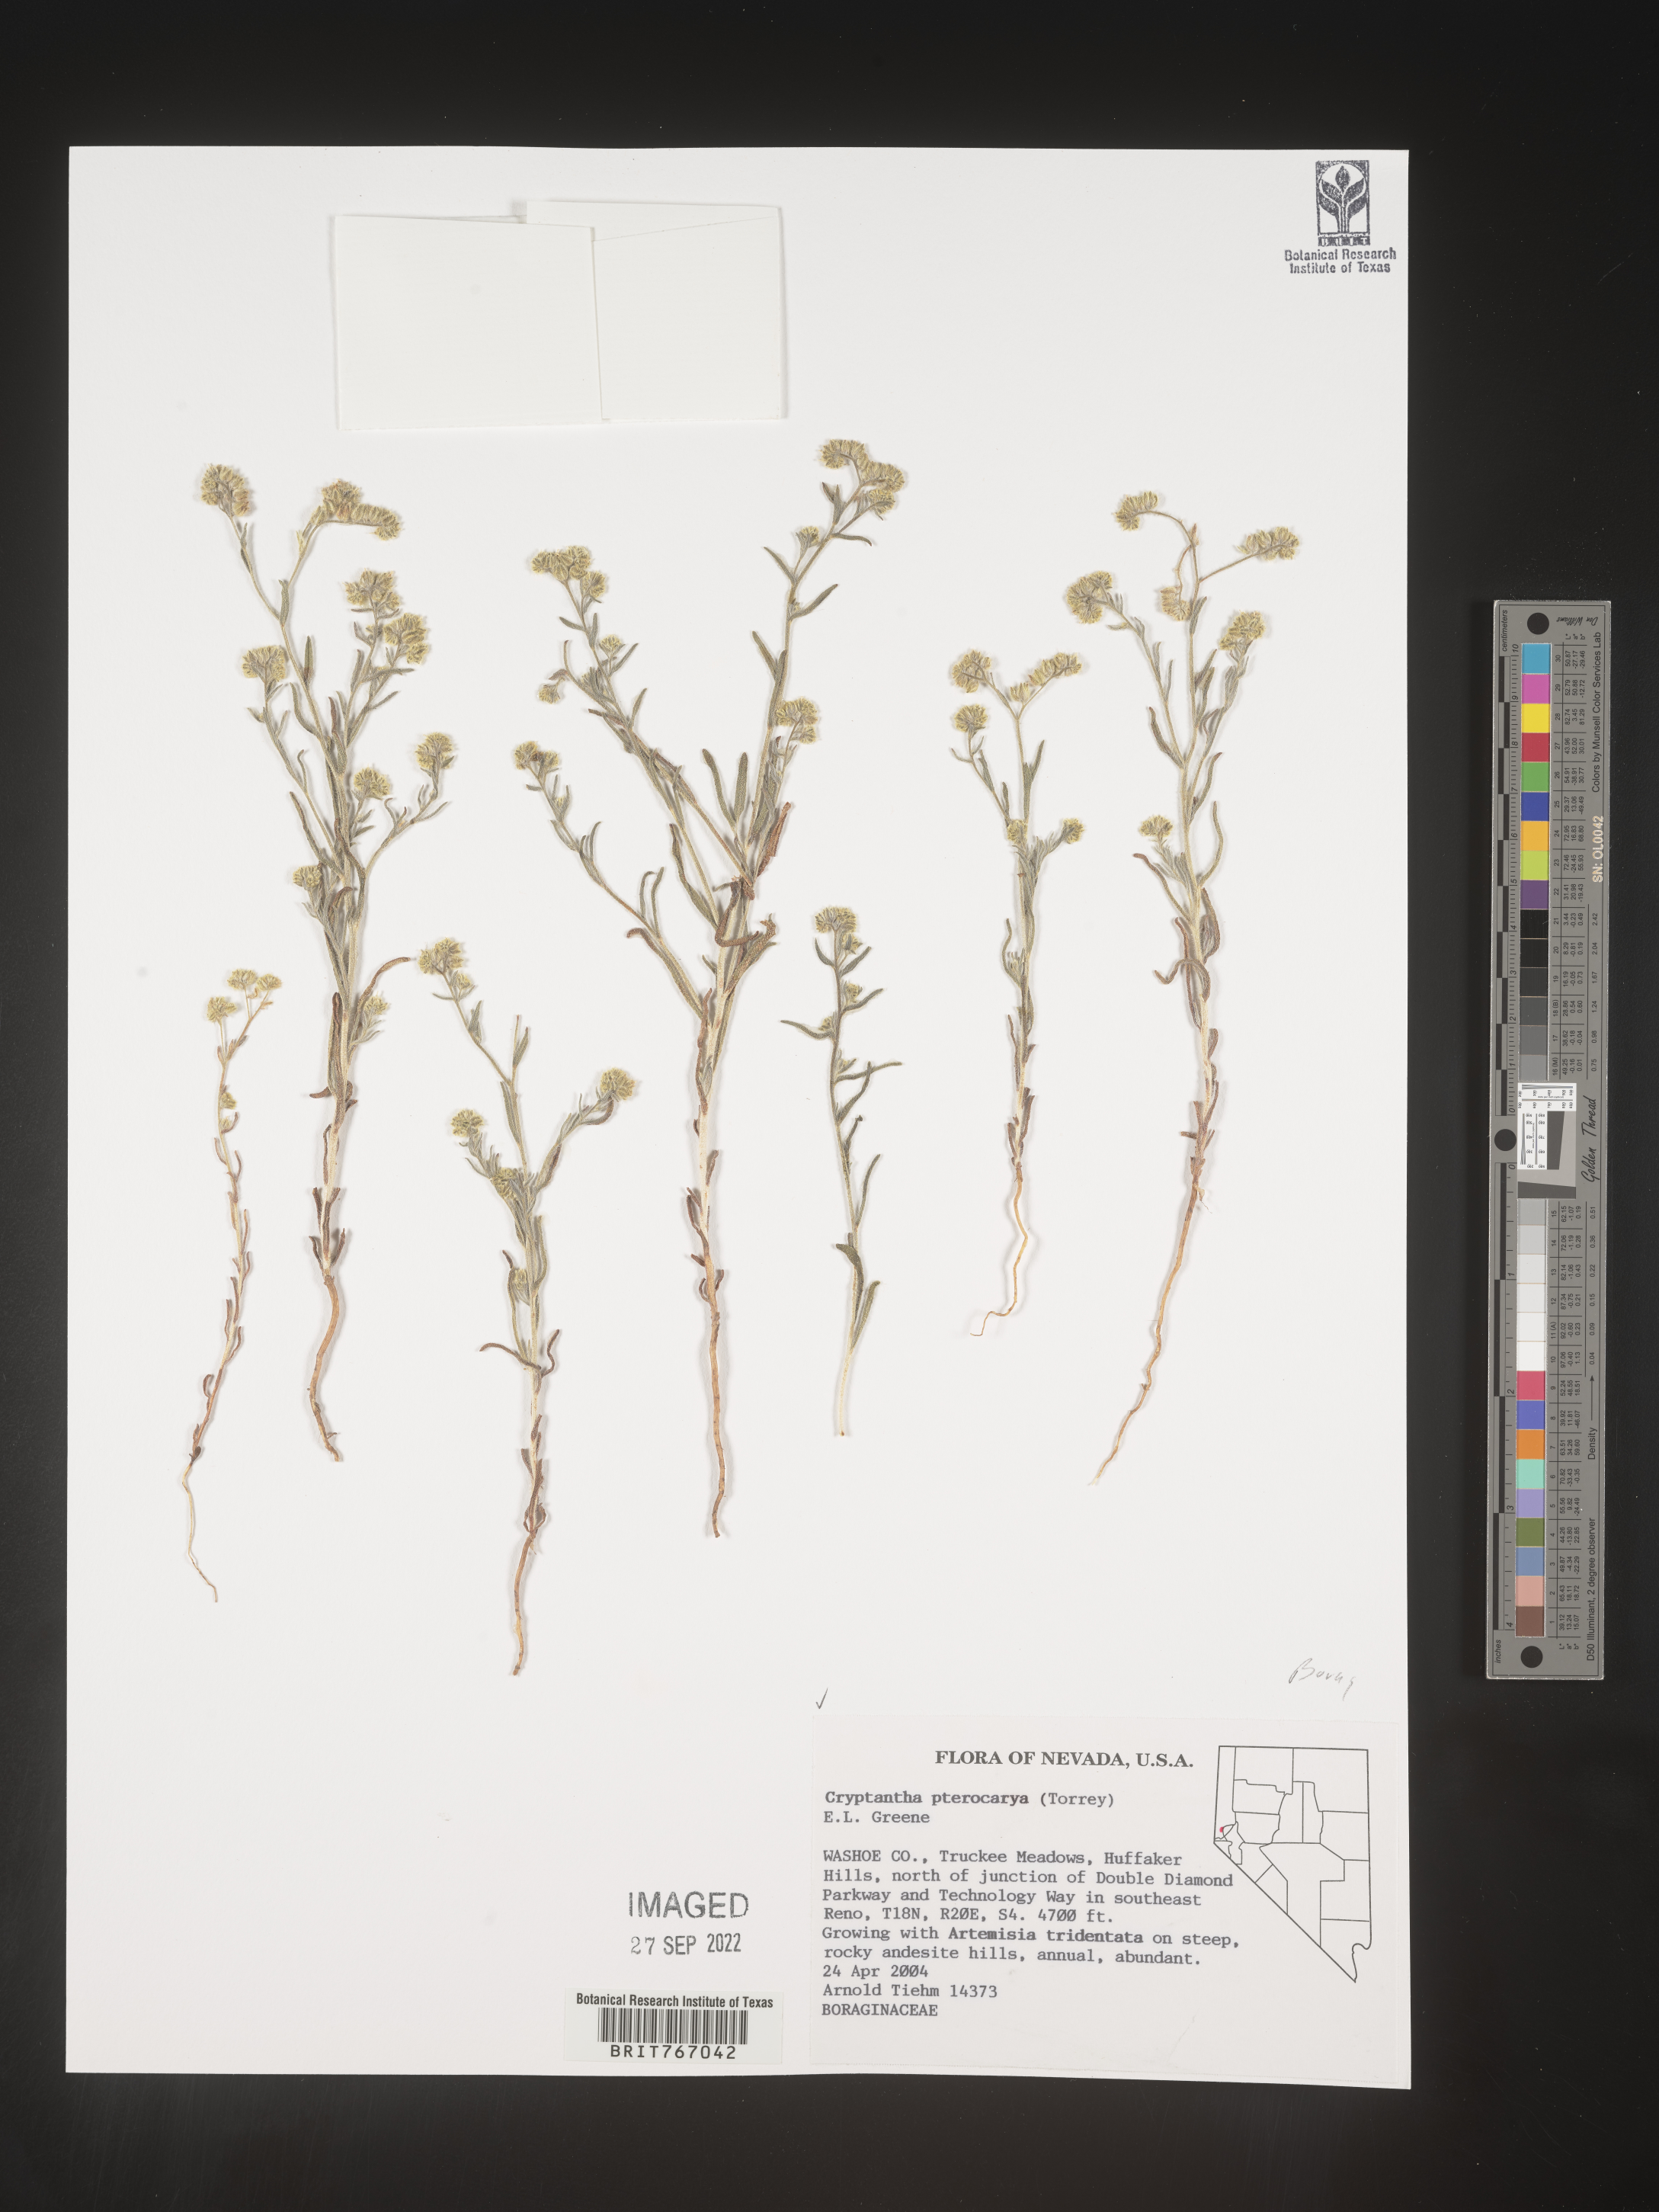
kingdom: Plantae
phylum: Tracheophyta
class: Magnoliopsida
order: Boraginales
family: Boraginaceae
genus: Cryptantha
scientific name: Cryptantha pterocarya
